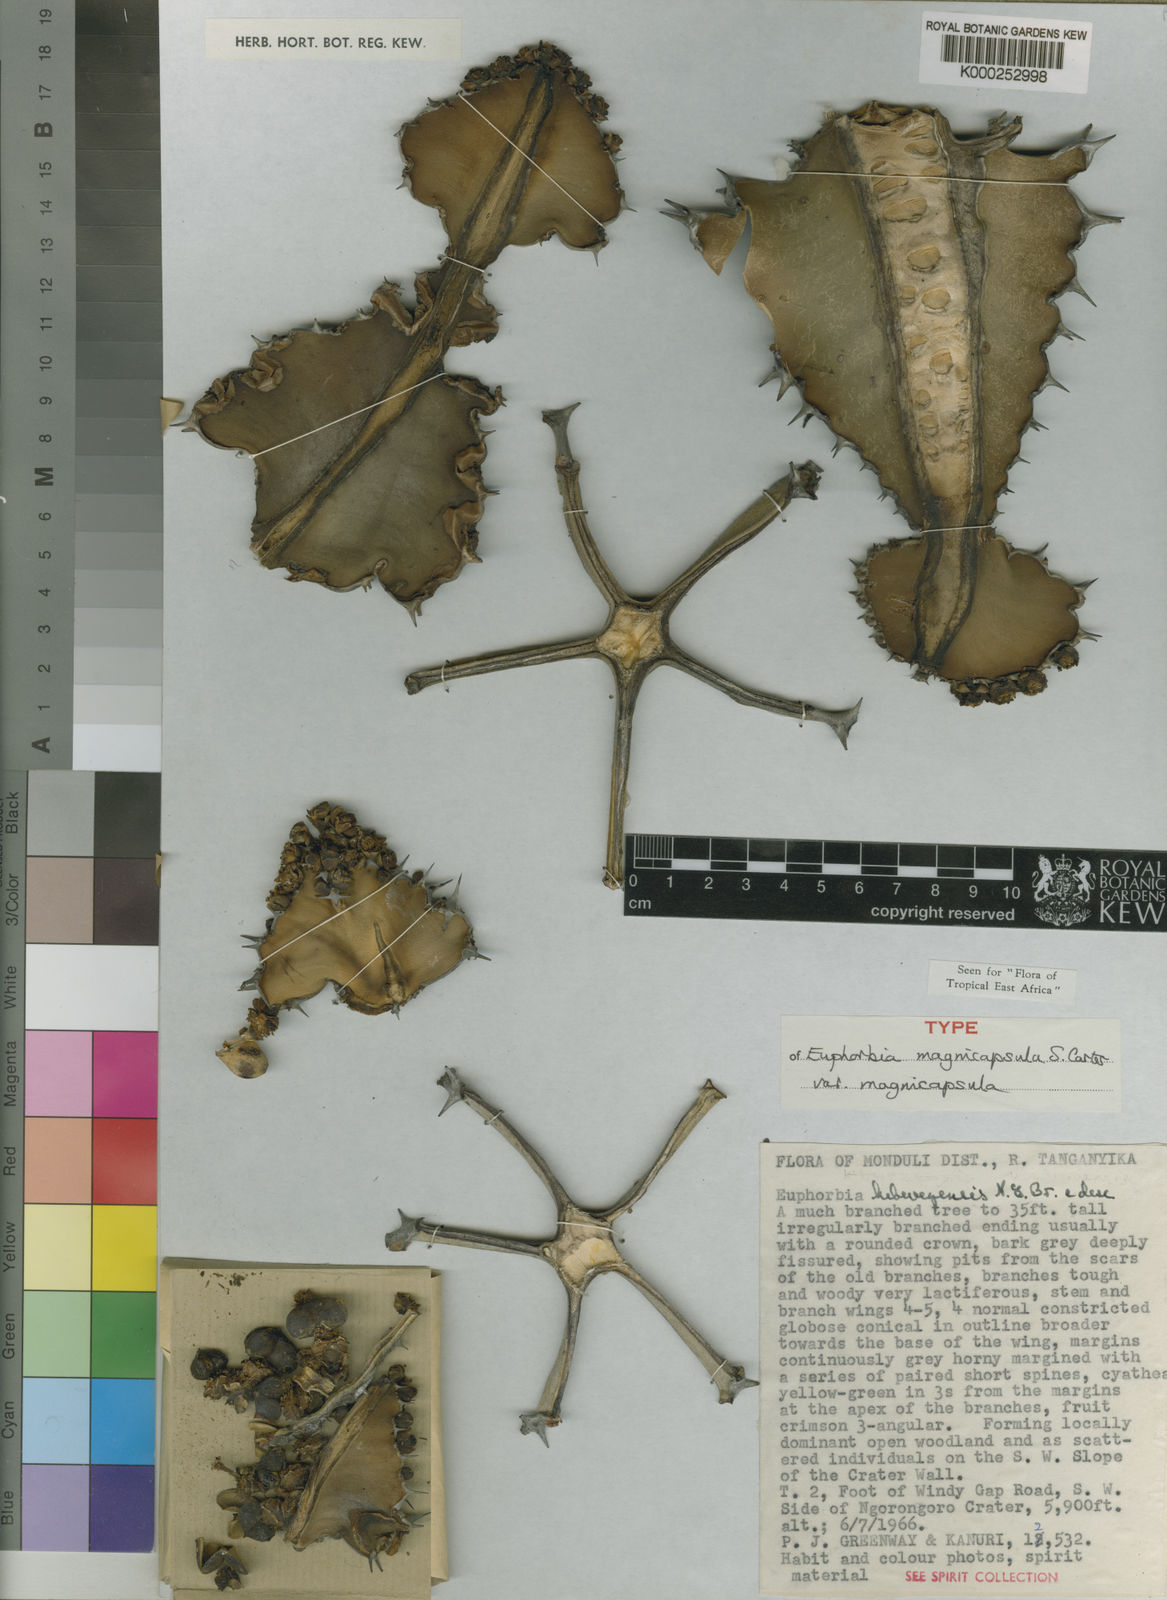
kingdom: Plantae
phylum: Tracheophyta
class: Magnoliopsida
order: Malpighiales
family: Euphorbiaceae
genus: Euphorbia
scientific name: Euphorbia bussei
